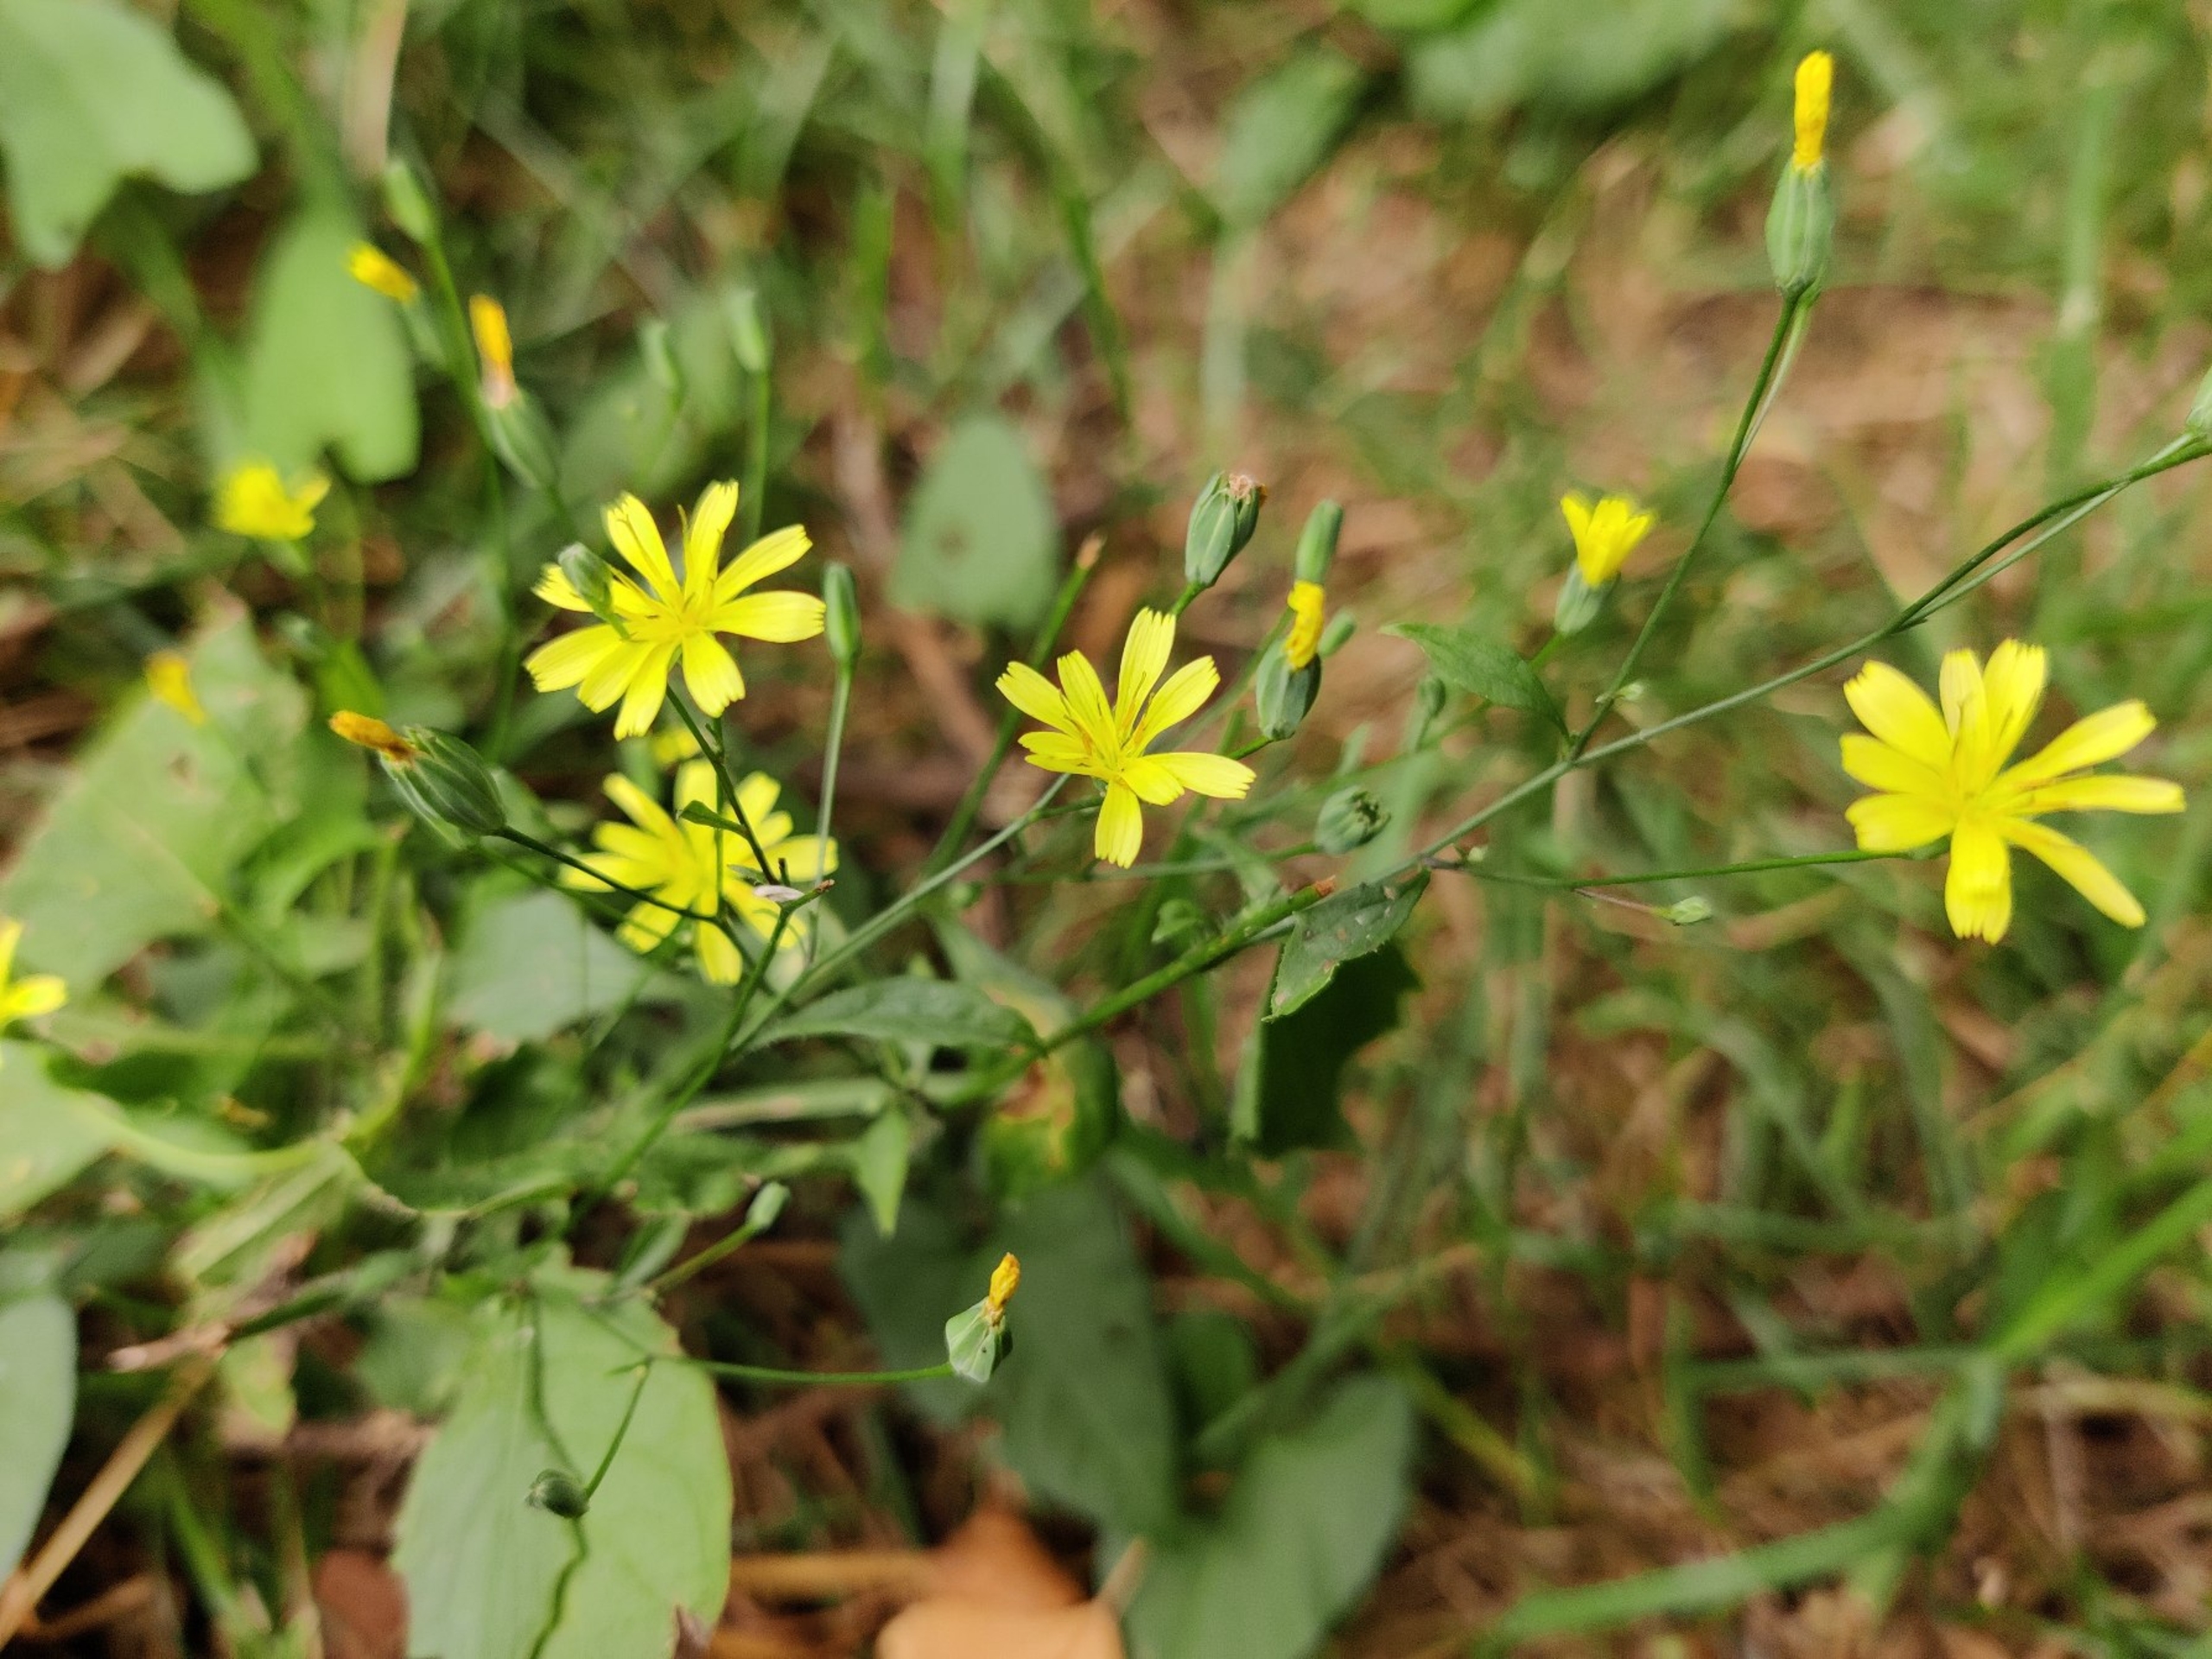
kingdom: Plantae
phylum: Tracheophyta
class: Magnoliopsida
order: Asterales
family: Asteraceae
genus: Lapsana
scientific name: Lapsana communis
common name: Haremad
